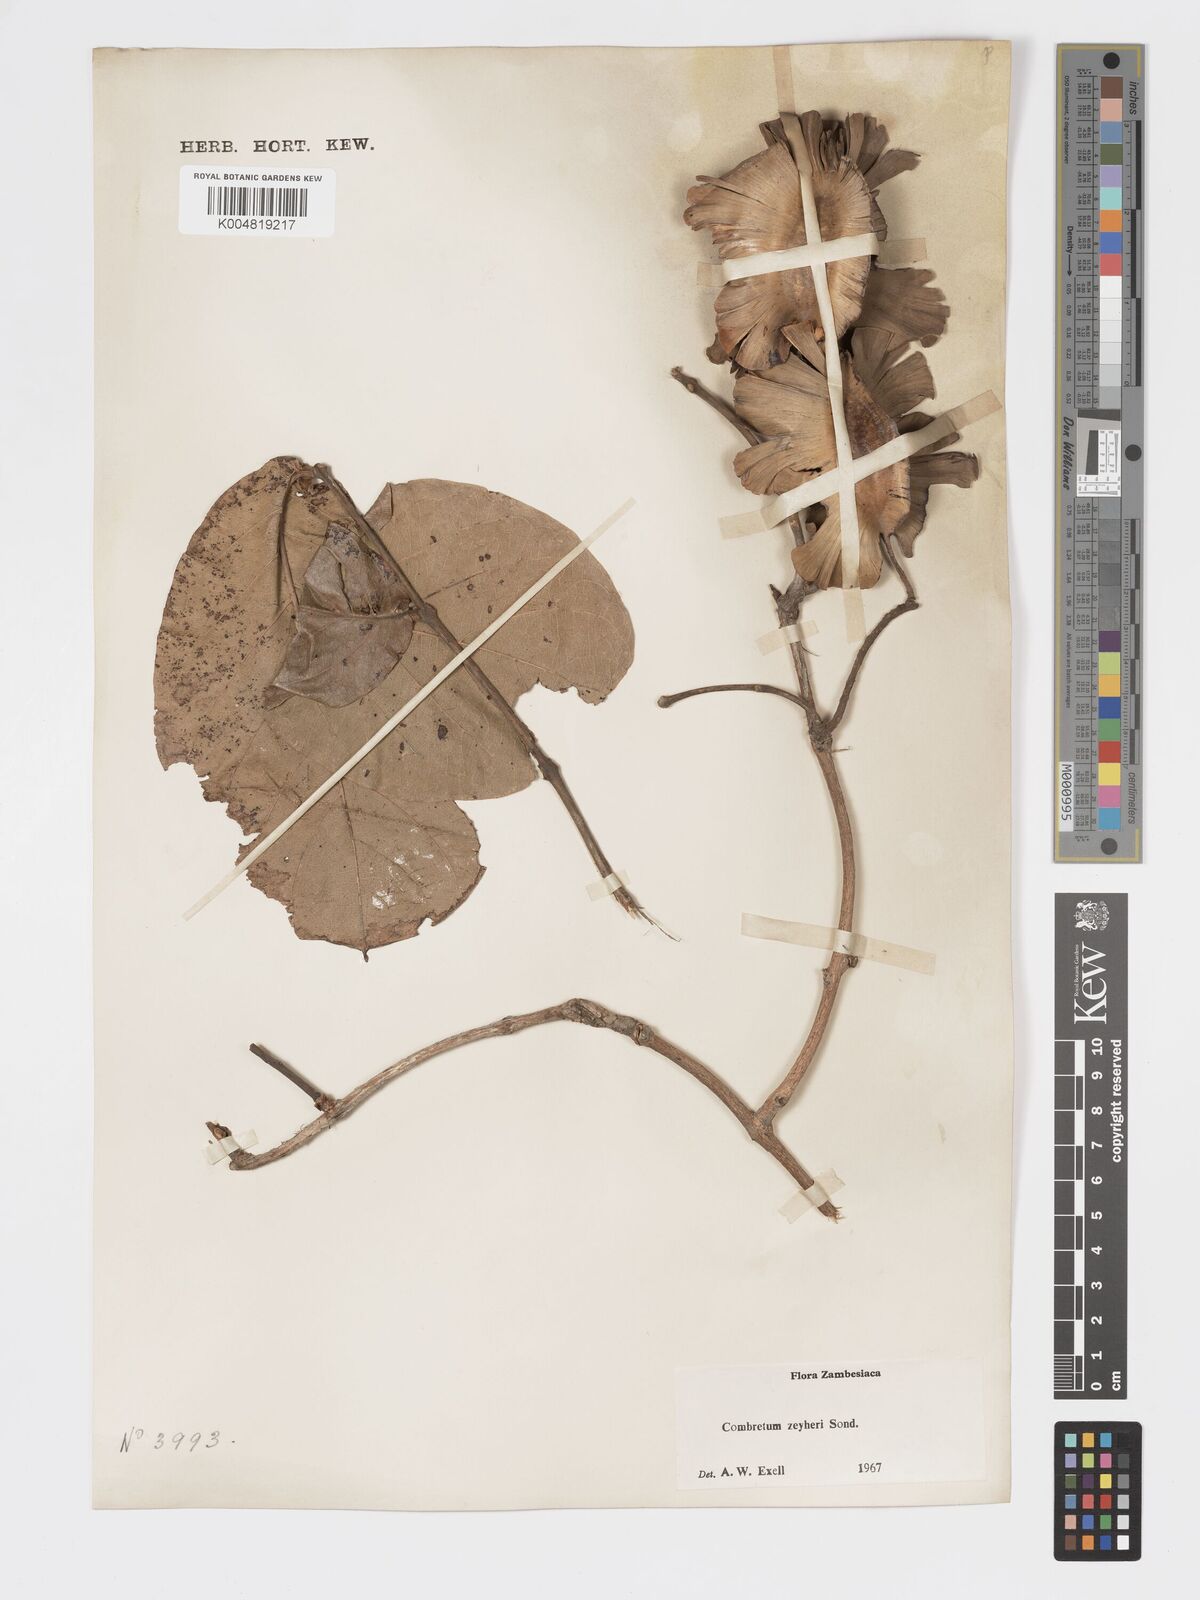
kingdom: Plantae
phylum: Tracheophyta
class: Magnoliopsida
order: Myrtales
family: Combretaceae
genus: Combretum
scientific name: Combretum zeyheri
